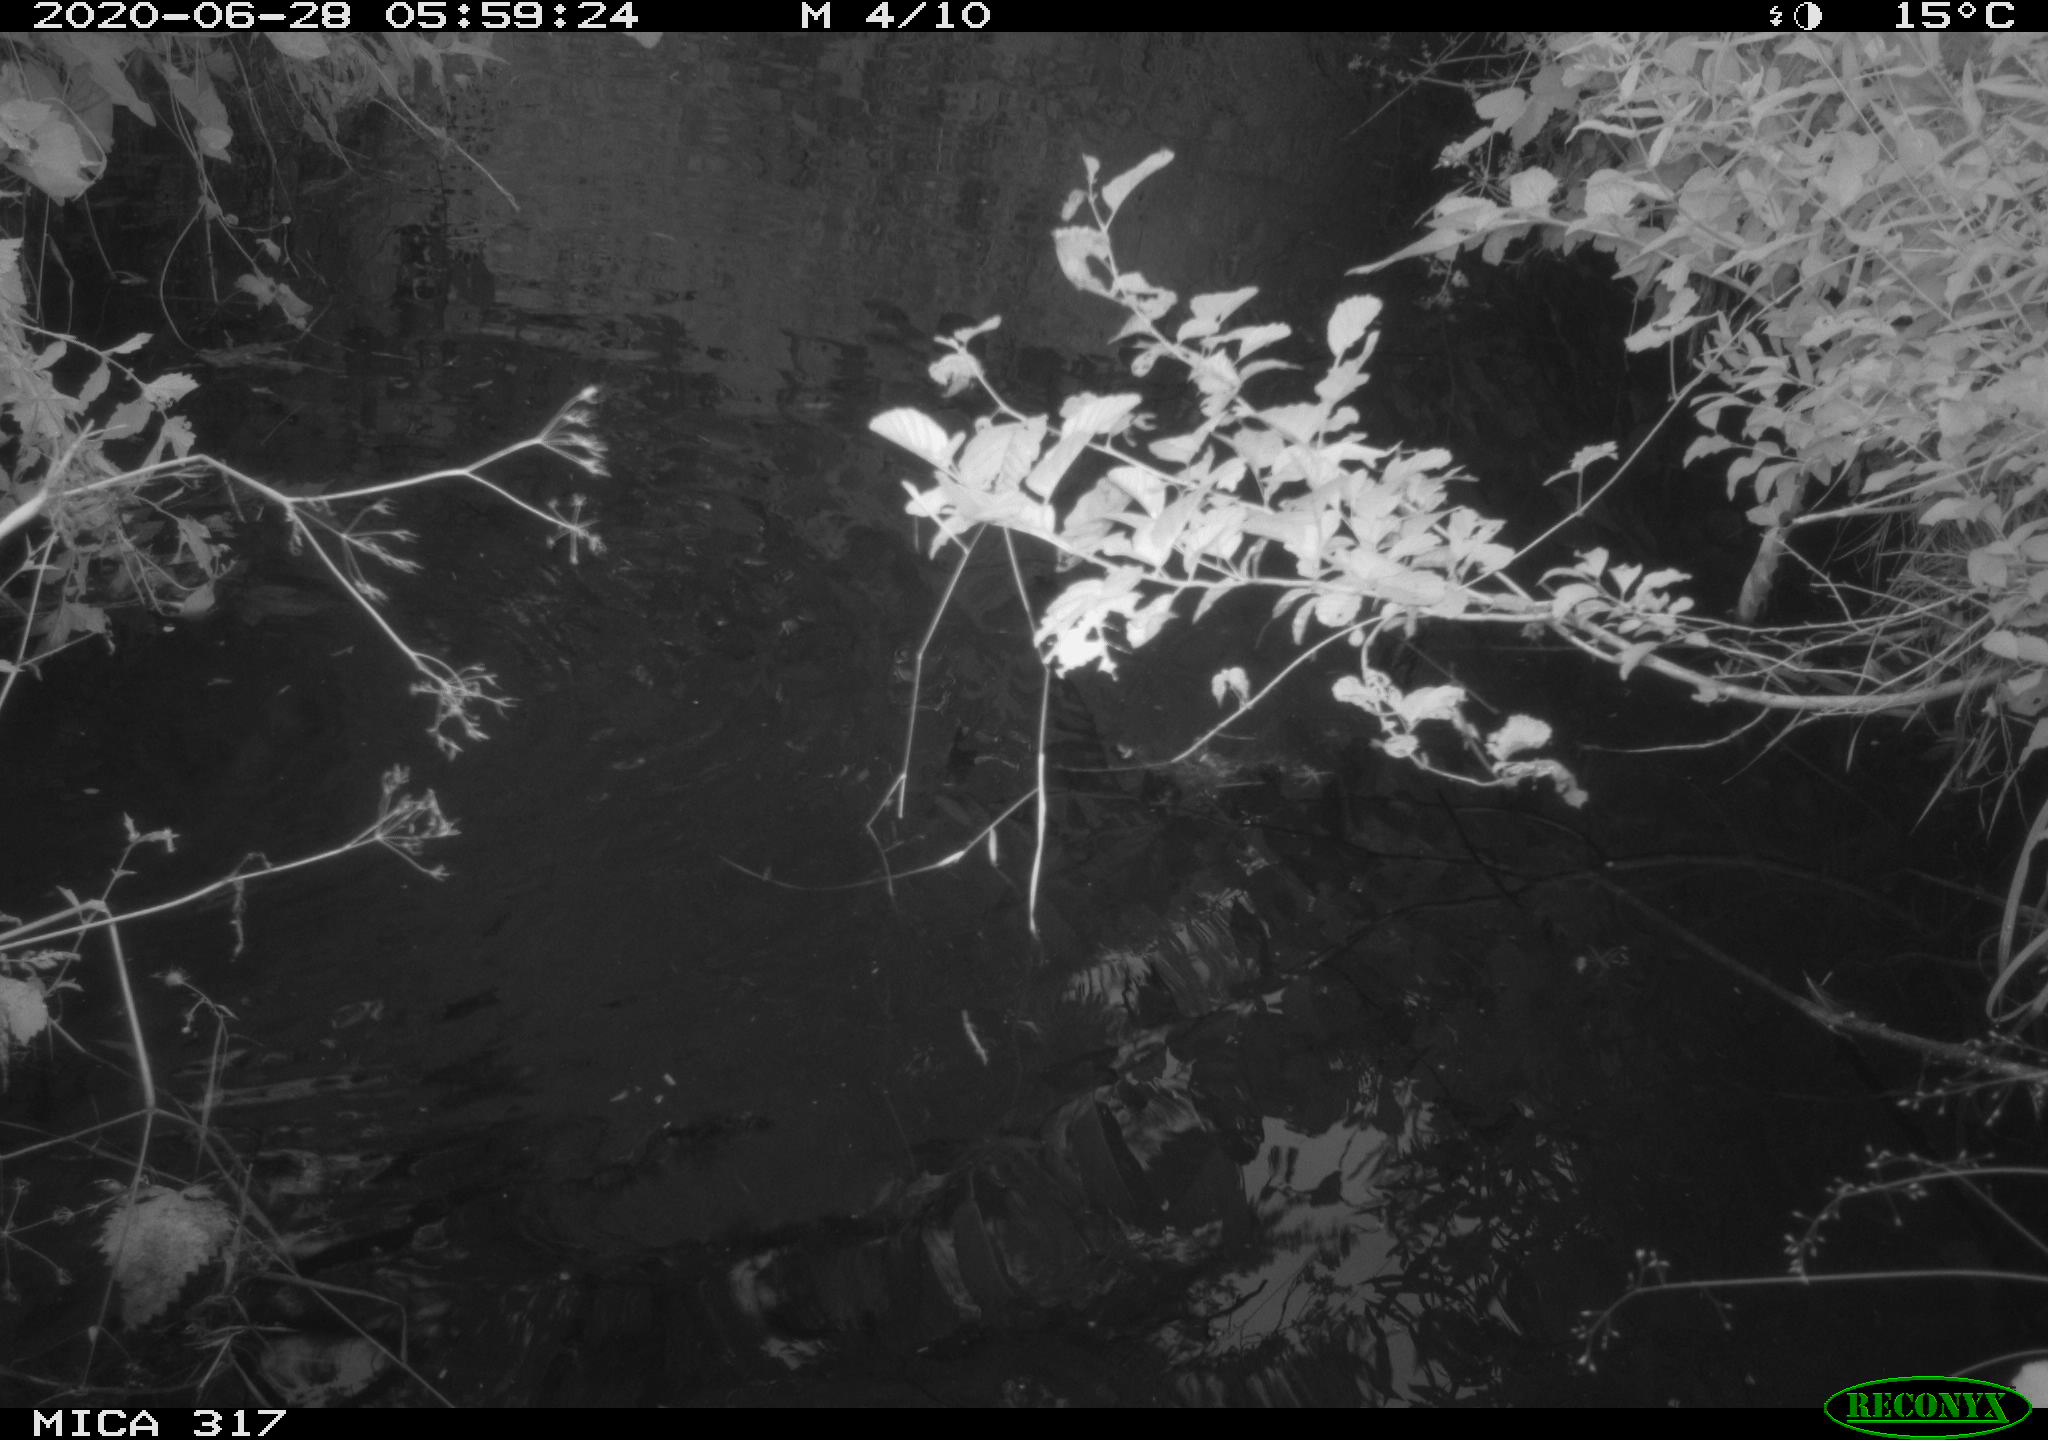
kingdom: Animalia
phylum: Chordata
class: Aves
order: Gruiformes
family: Rallidae
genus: Fulica
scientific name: Fulica atra
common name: Eurasian coot
